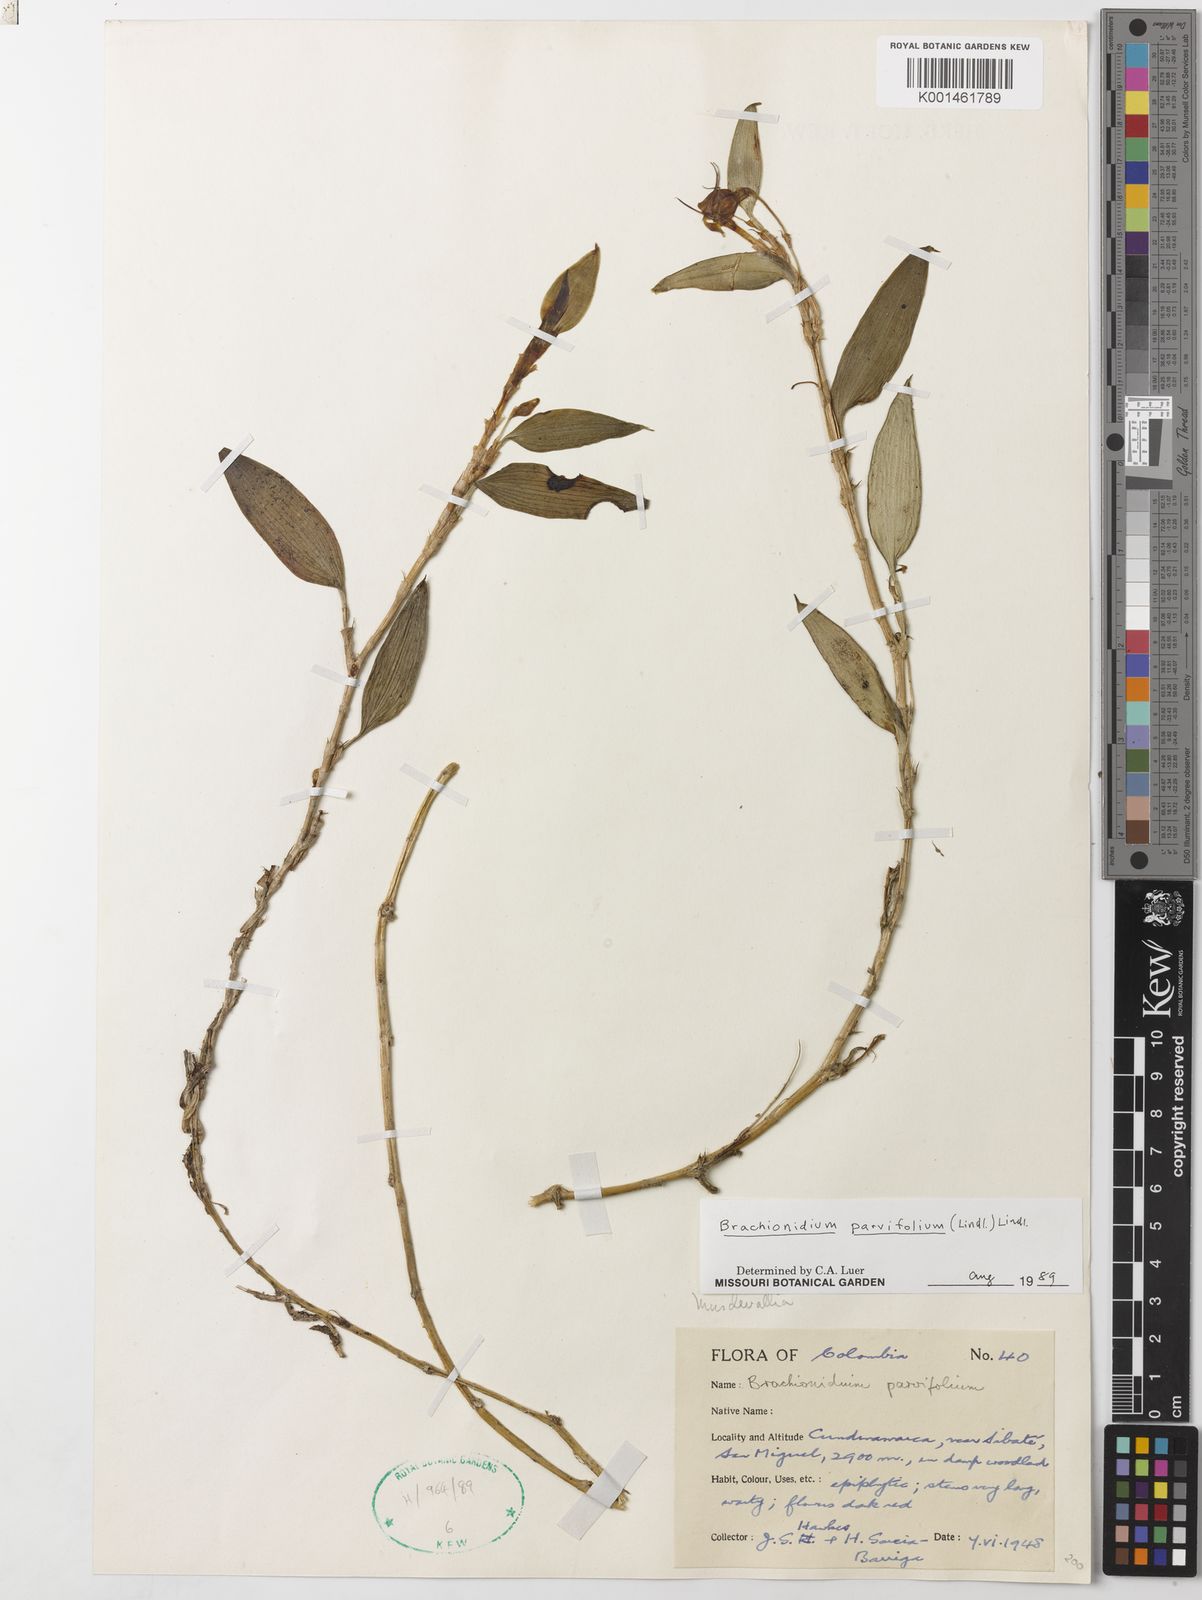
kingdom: Plantae
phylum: Tracheophyta
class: Liliopsida
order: Asparagales
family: Orchidaceae
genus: Brachionidium
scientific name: Brachionidium parvifolium
